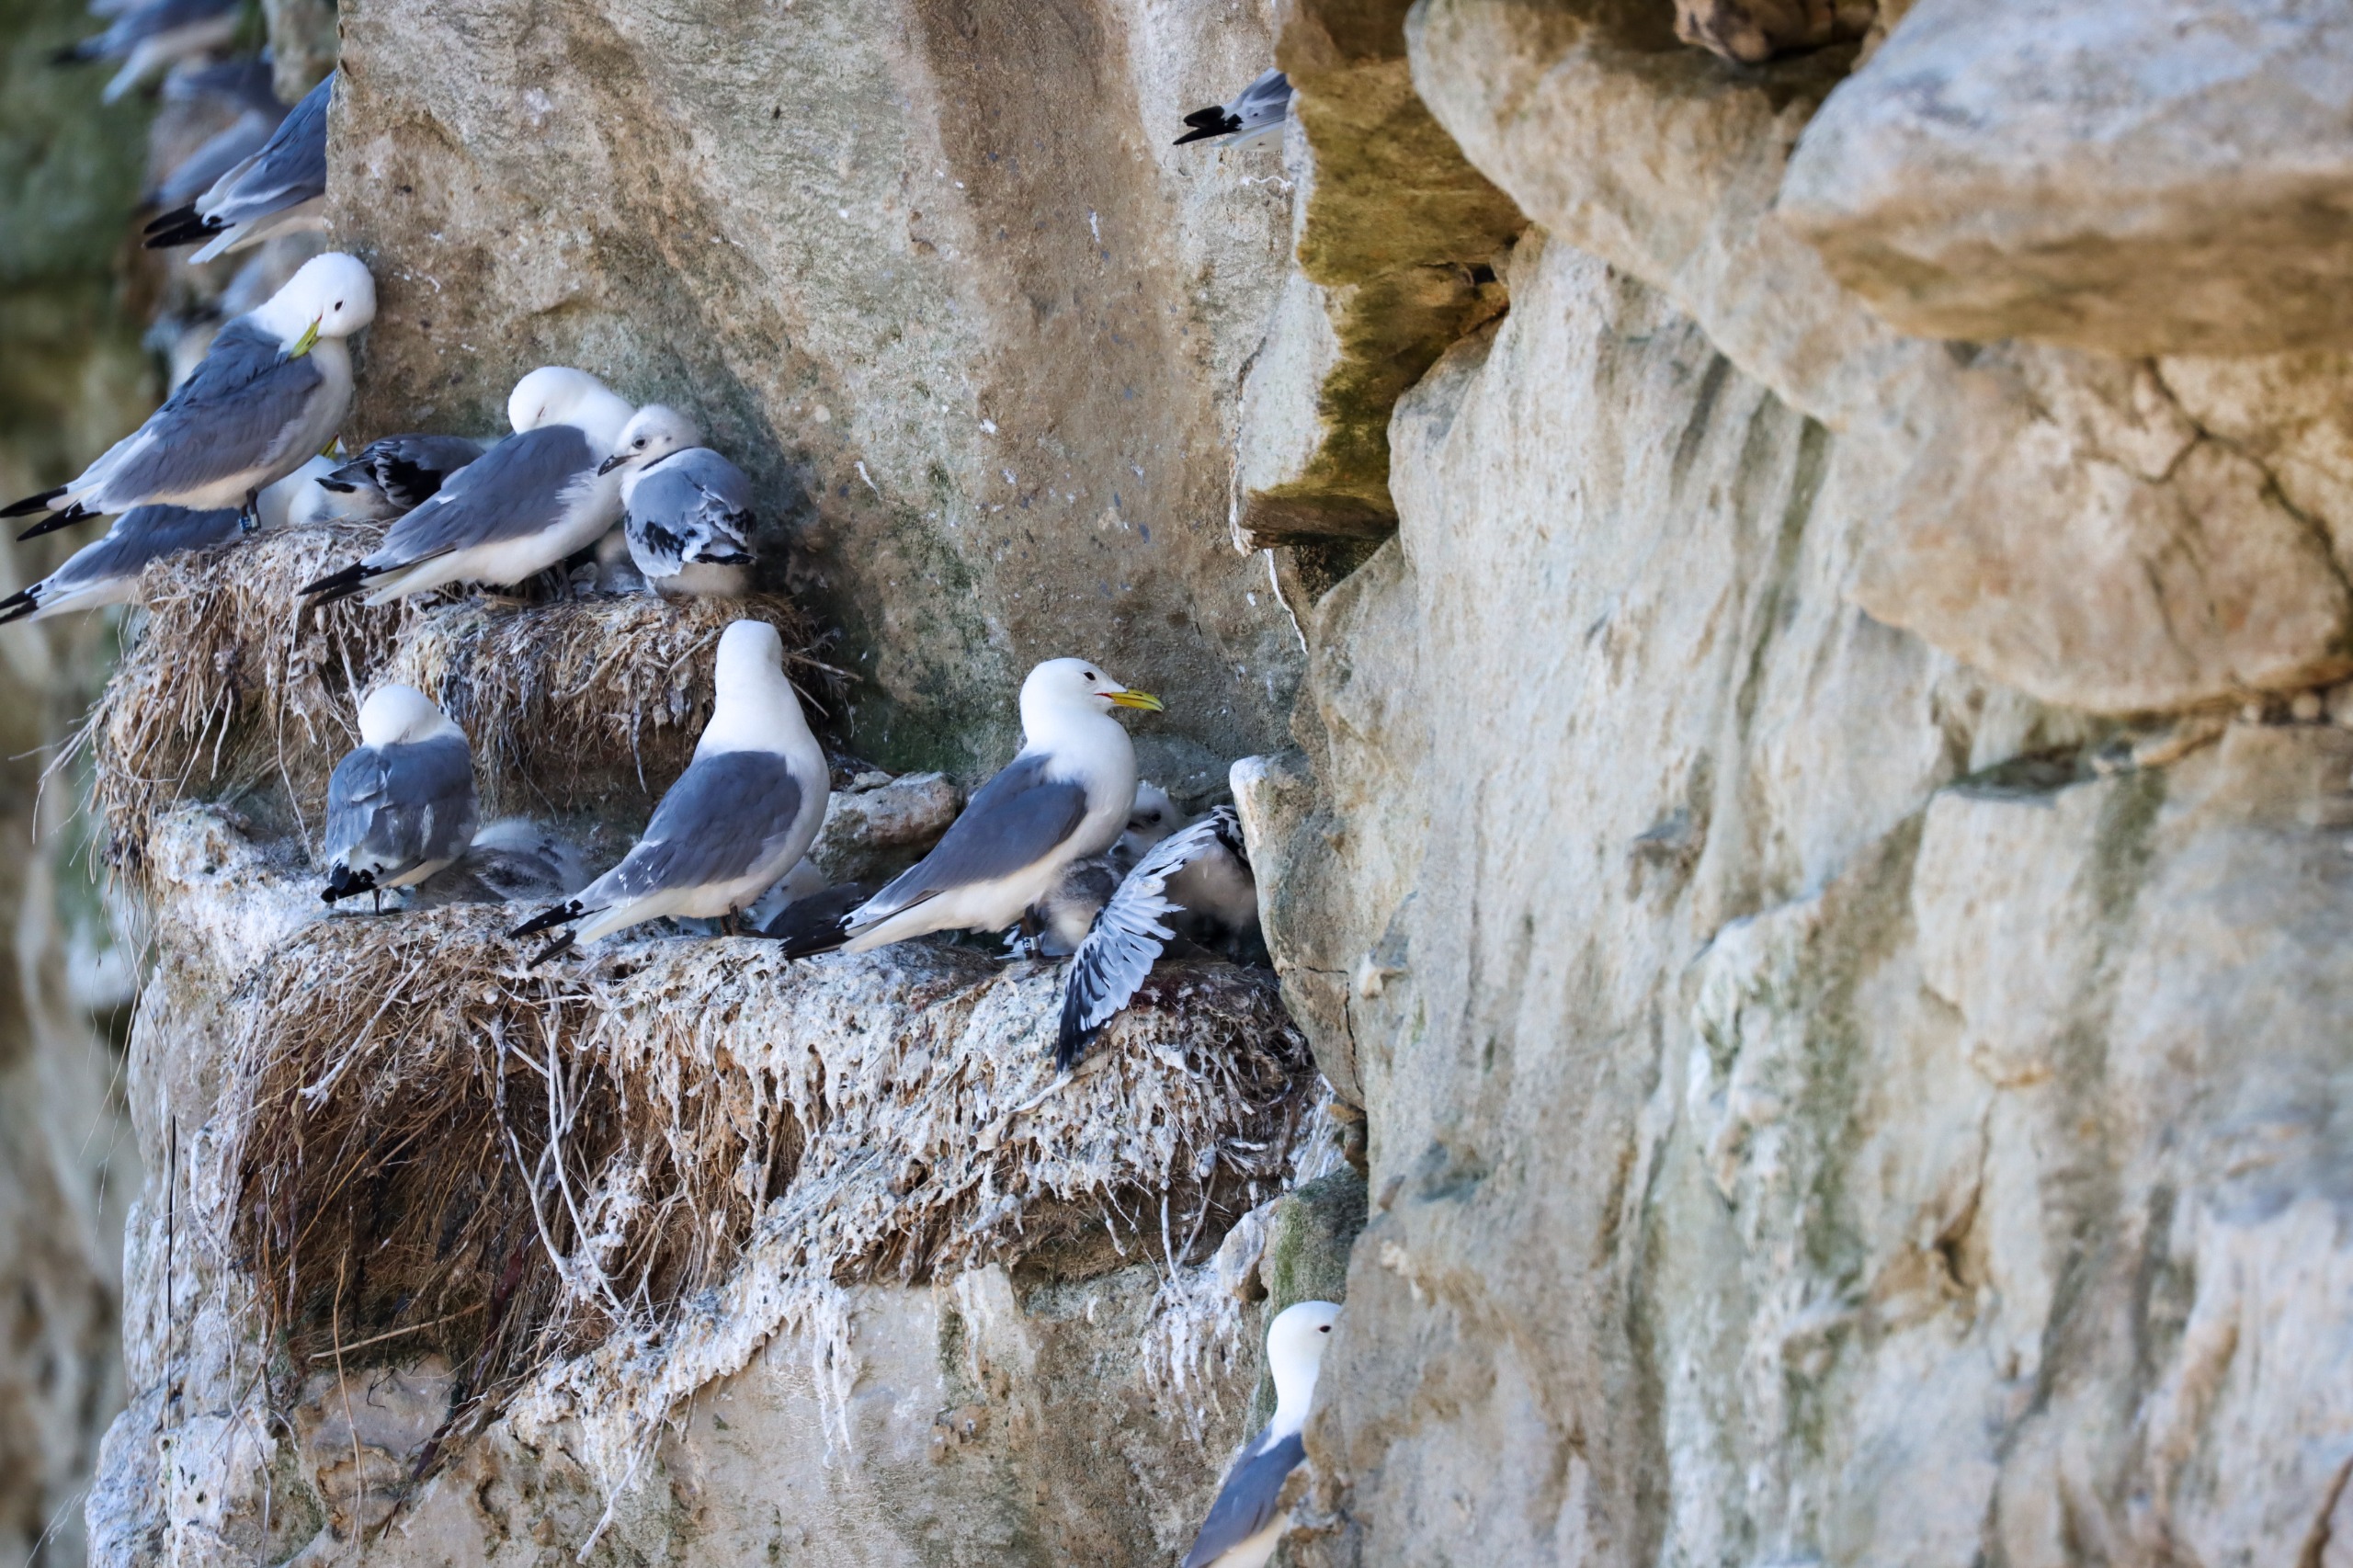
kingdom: Animalia
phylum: Chordata
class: Aves
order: Charadriiformes
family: Laridae
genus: Rissa
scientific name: Rissa tridactyla
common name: Ride
